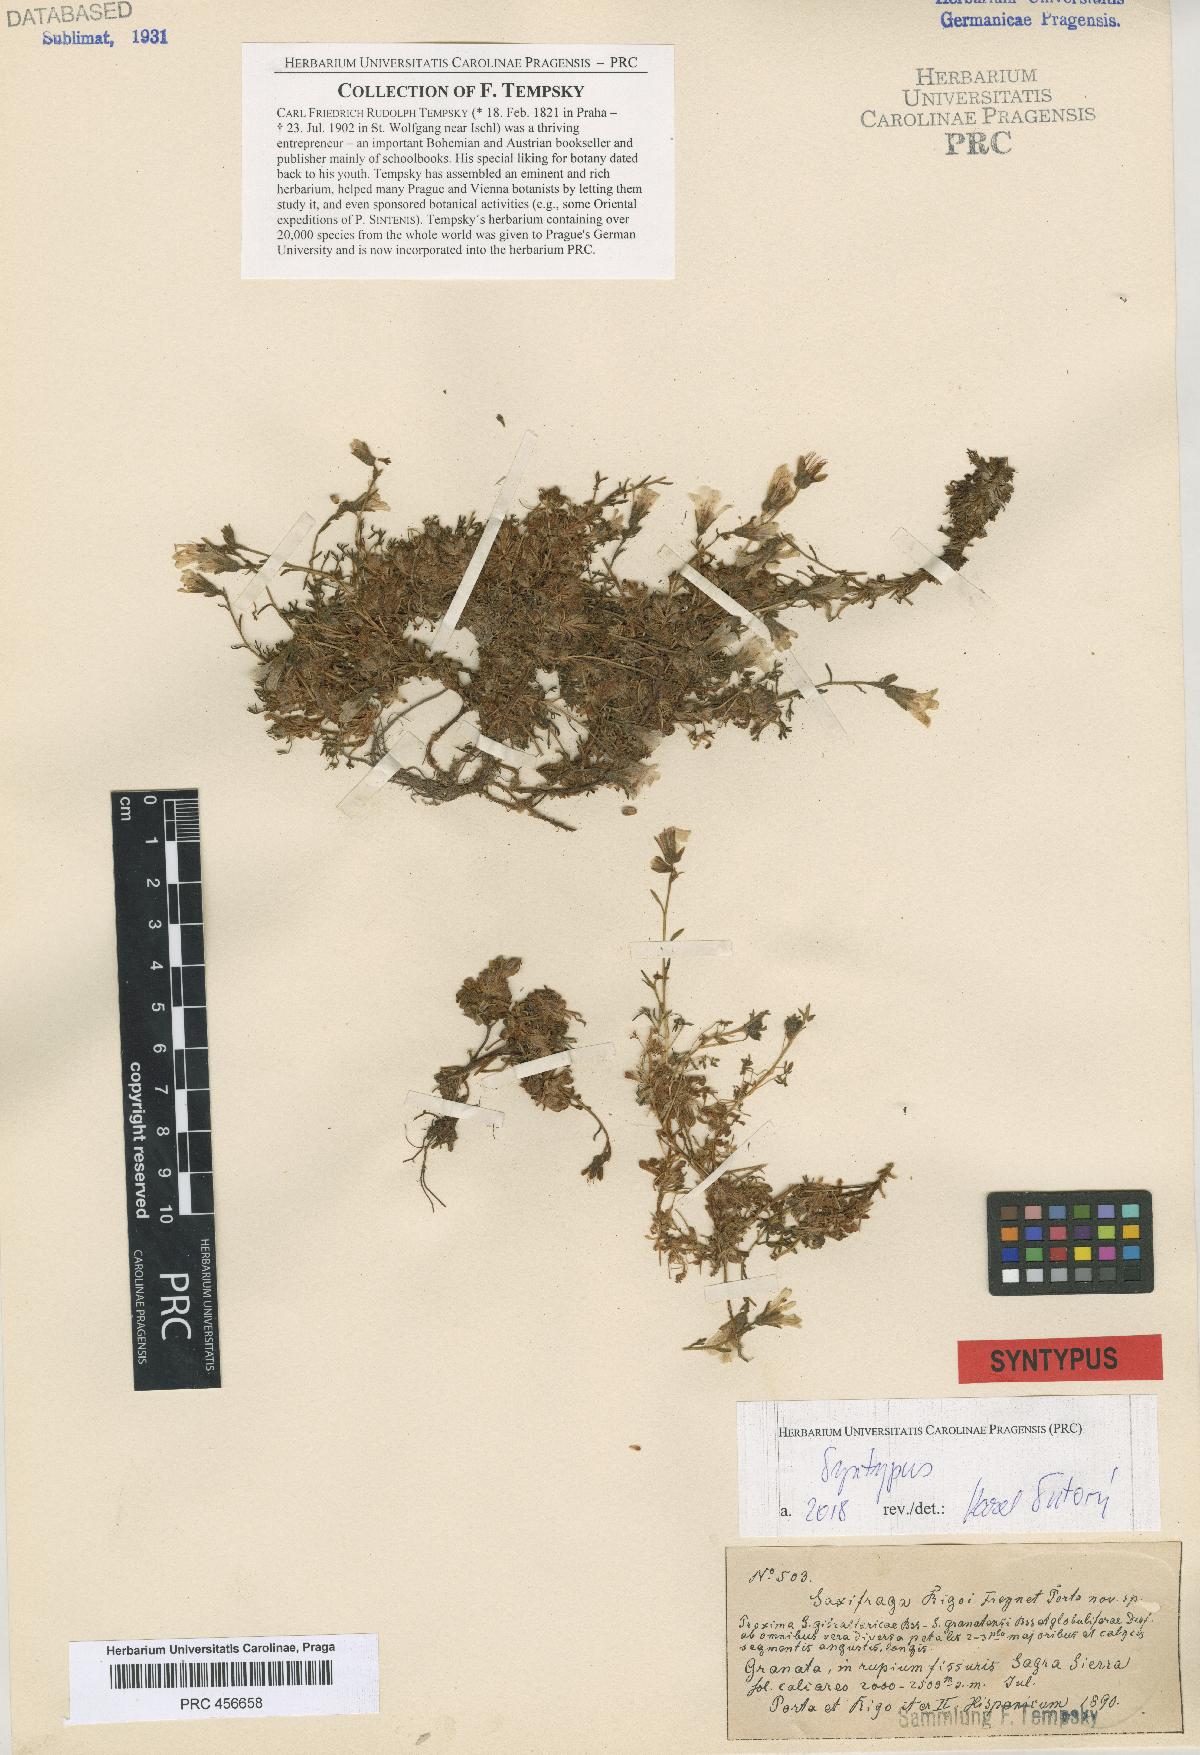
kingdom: Plantae
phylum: Tracheophyta
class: Magnoliopsida
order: Saxifragales
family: Saxifragaceae
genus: Saxifraga
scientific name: Saxifraga rigoi
